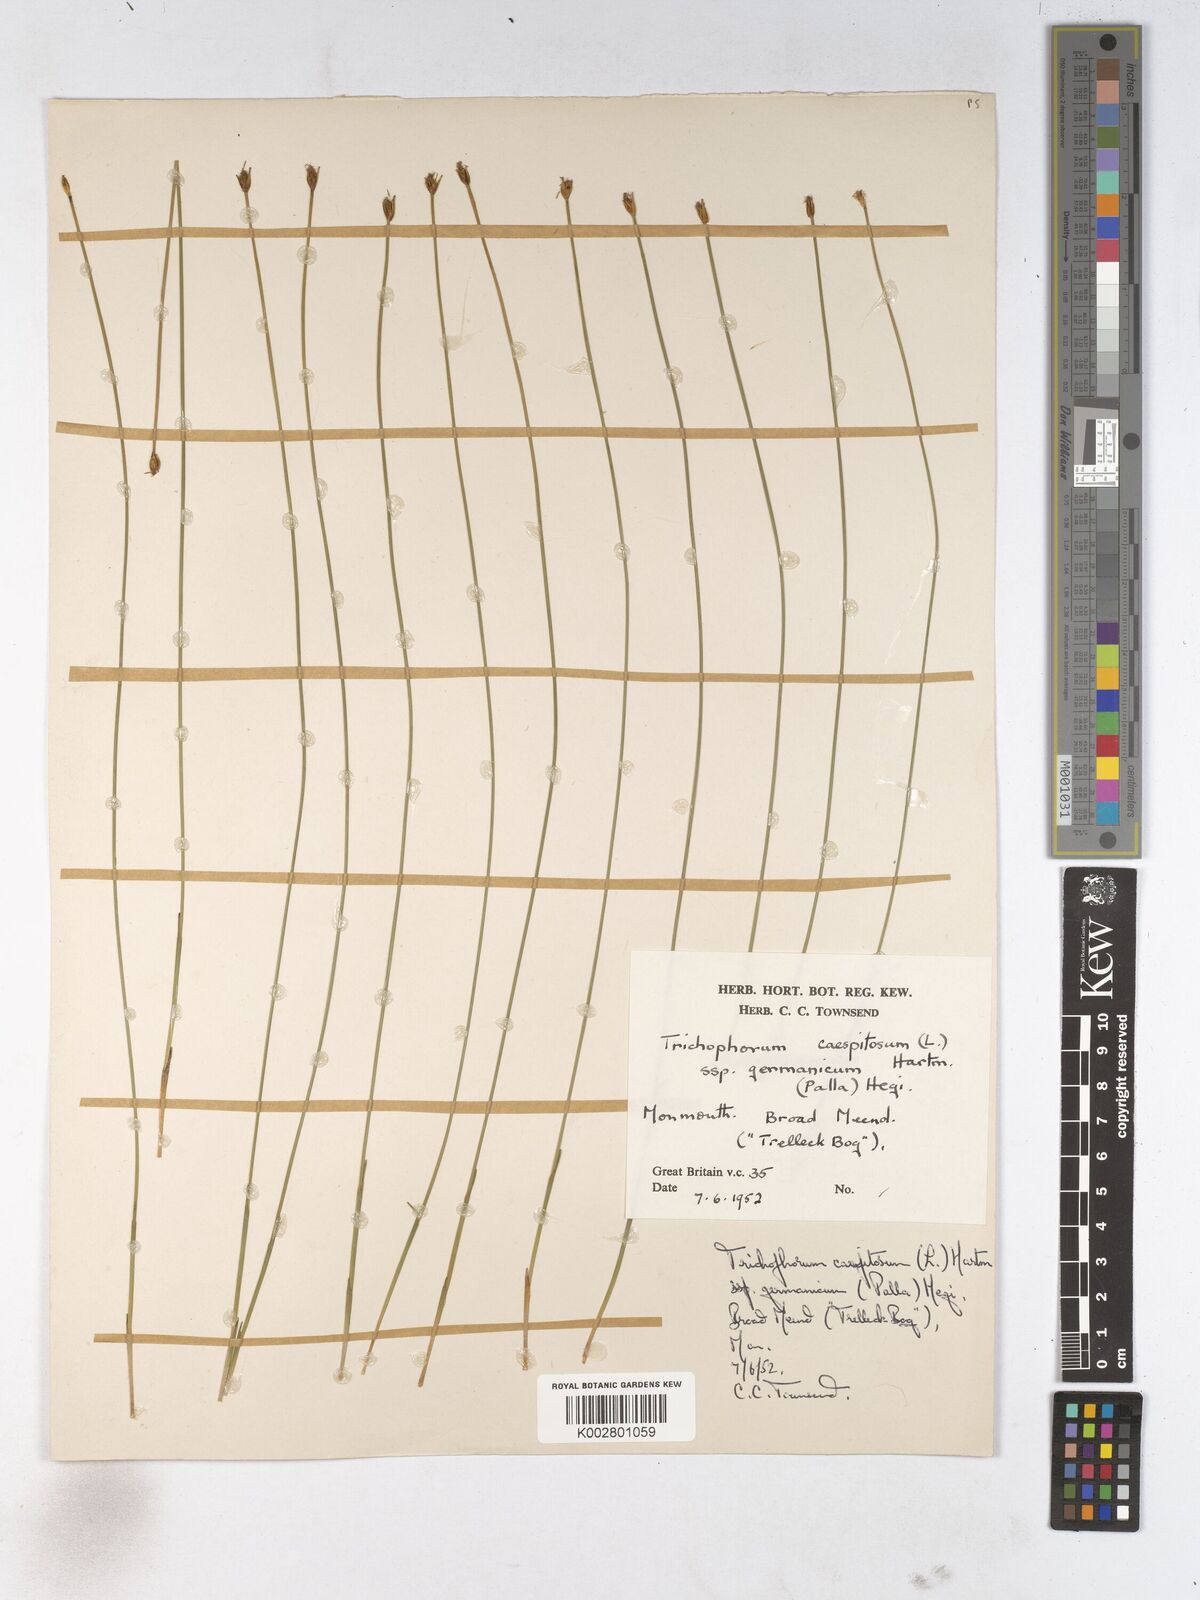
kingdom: Plantae
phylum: Tracheophyta
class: Liliopsida
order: Poales
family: Cyperaceae
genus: Trichophorum
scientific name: Trichophorum cespitosum
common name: Cespitose bulrush
